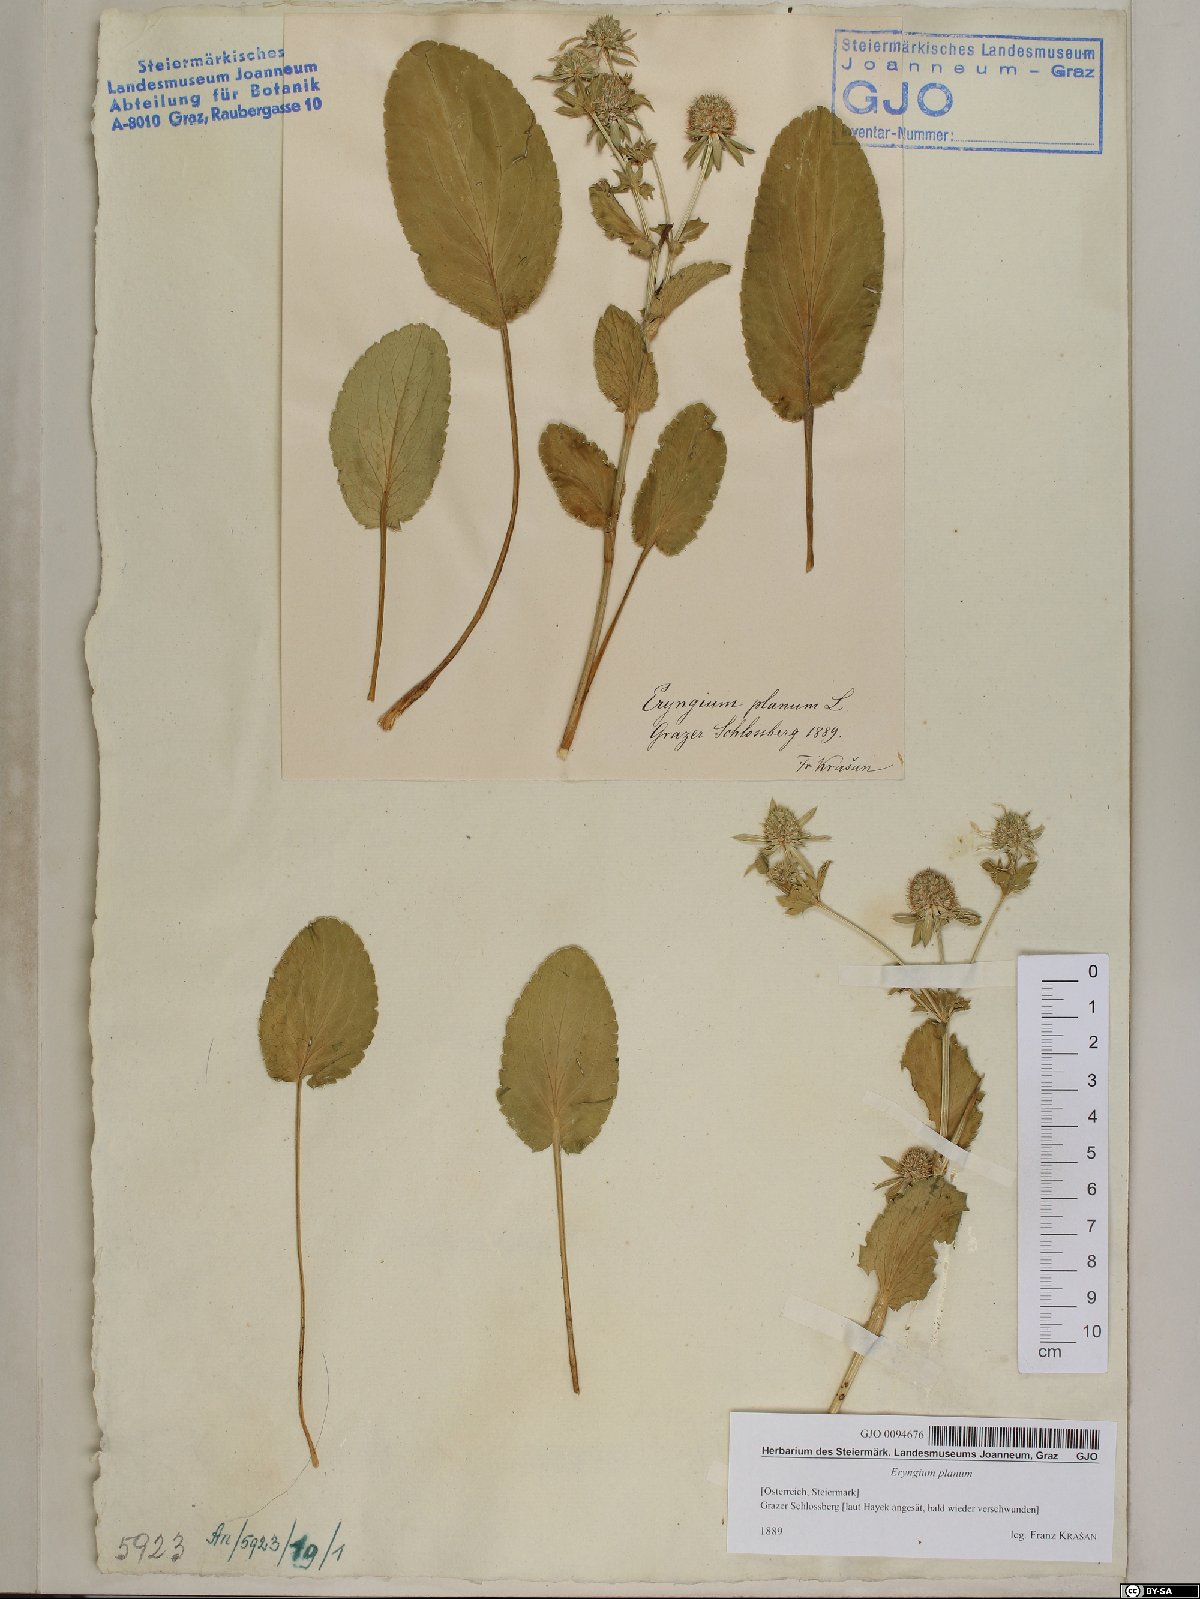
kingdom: Plantae
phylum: Tracheophyta
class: Magnoliopsida
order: Apiales
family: Apiaceae
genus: Eryngium
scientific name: Eryngium planum
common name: Blue eryngo
